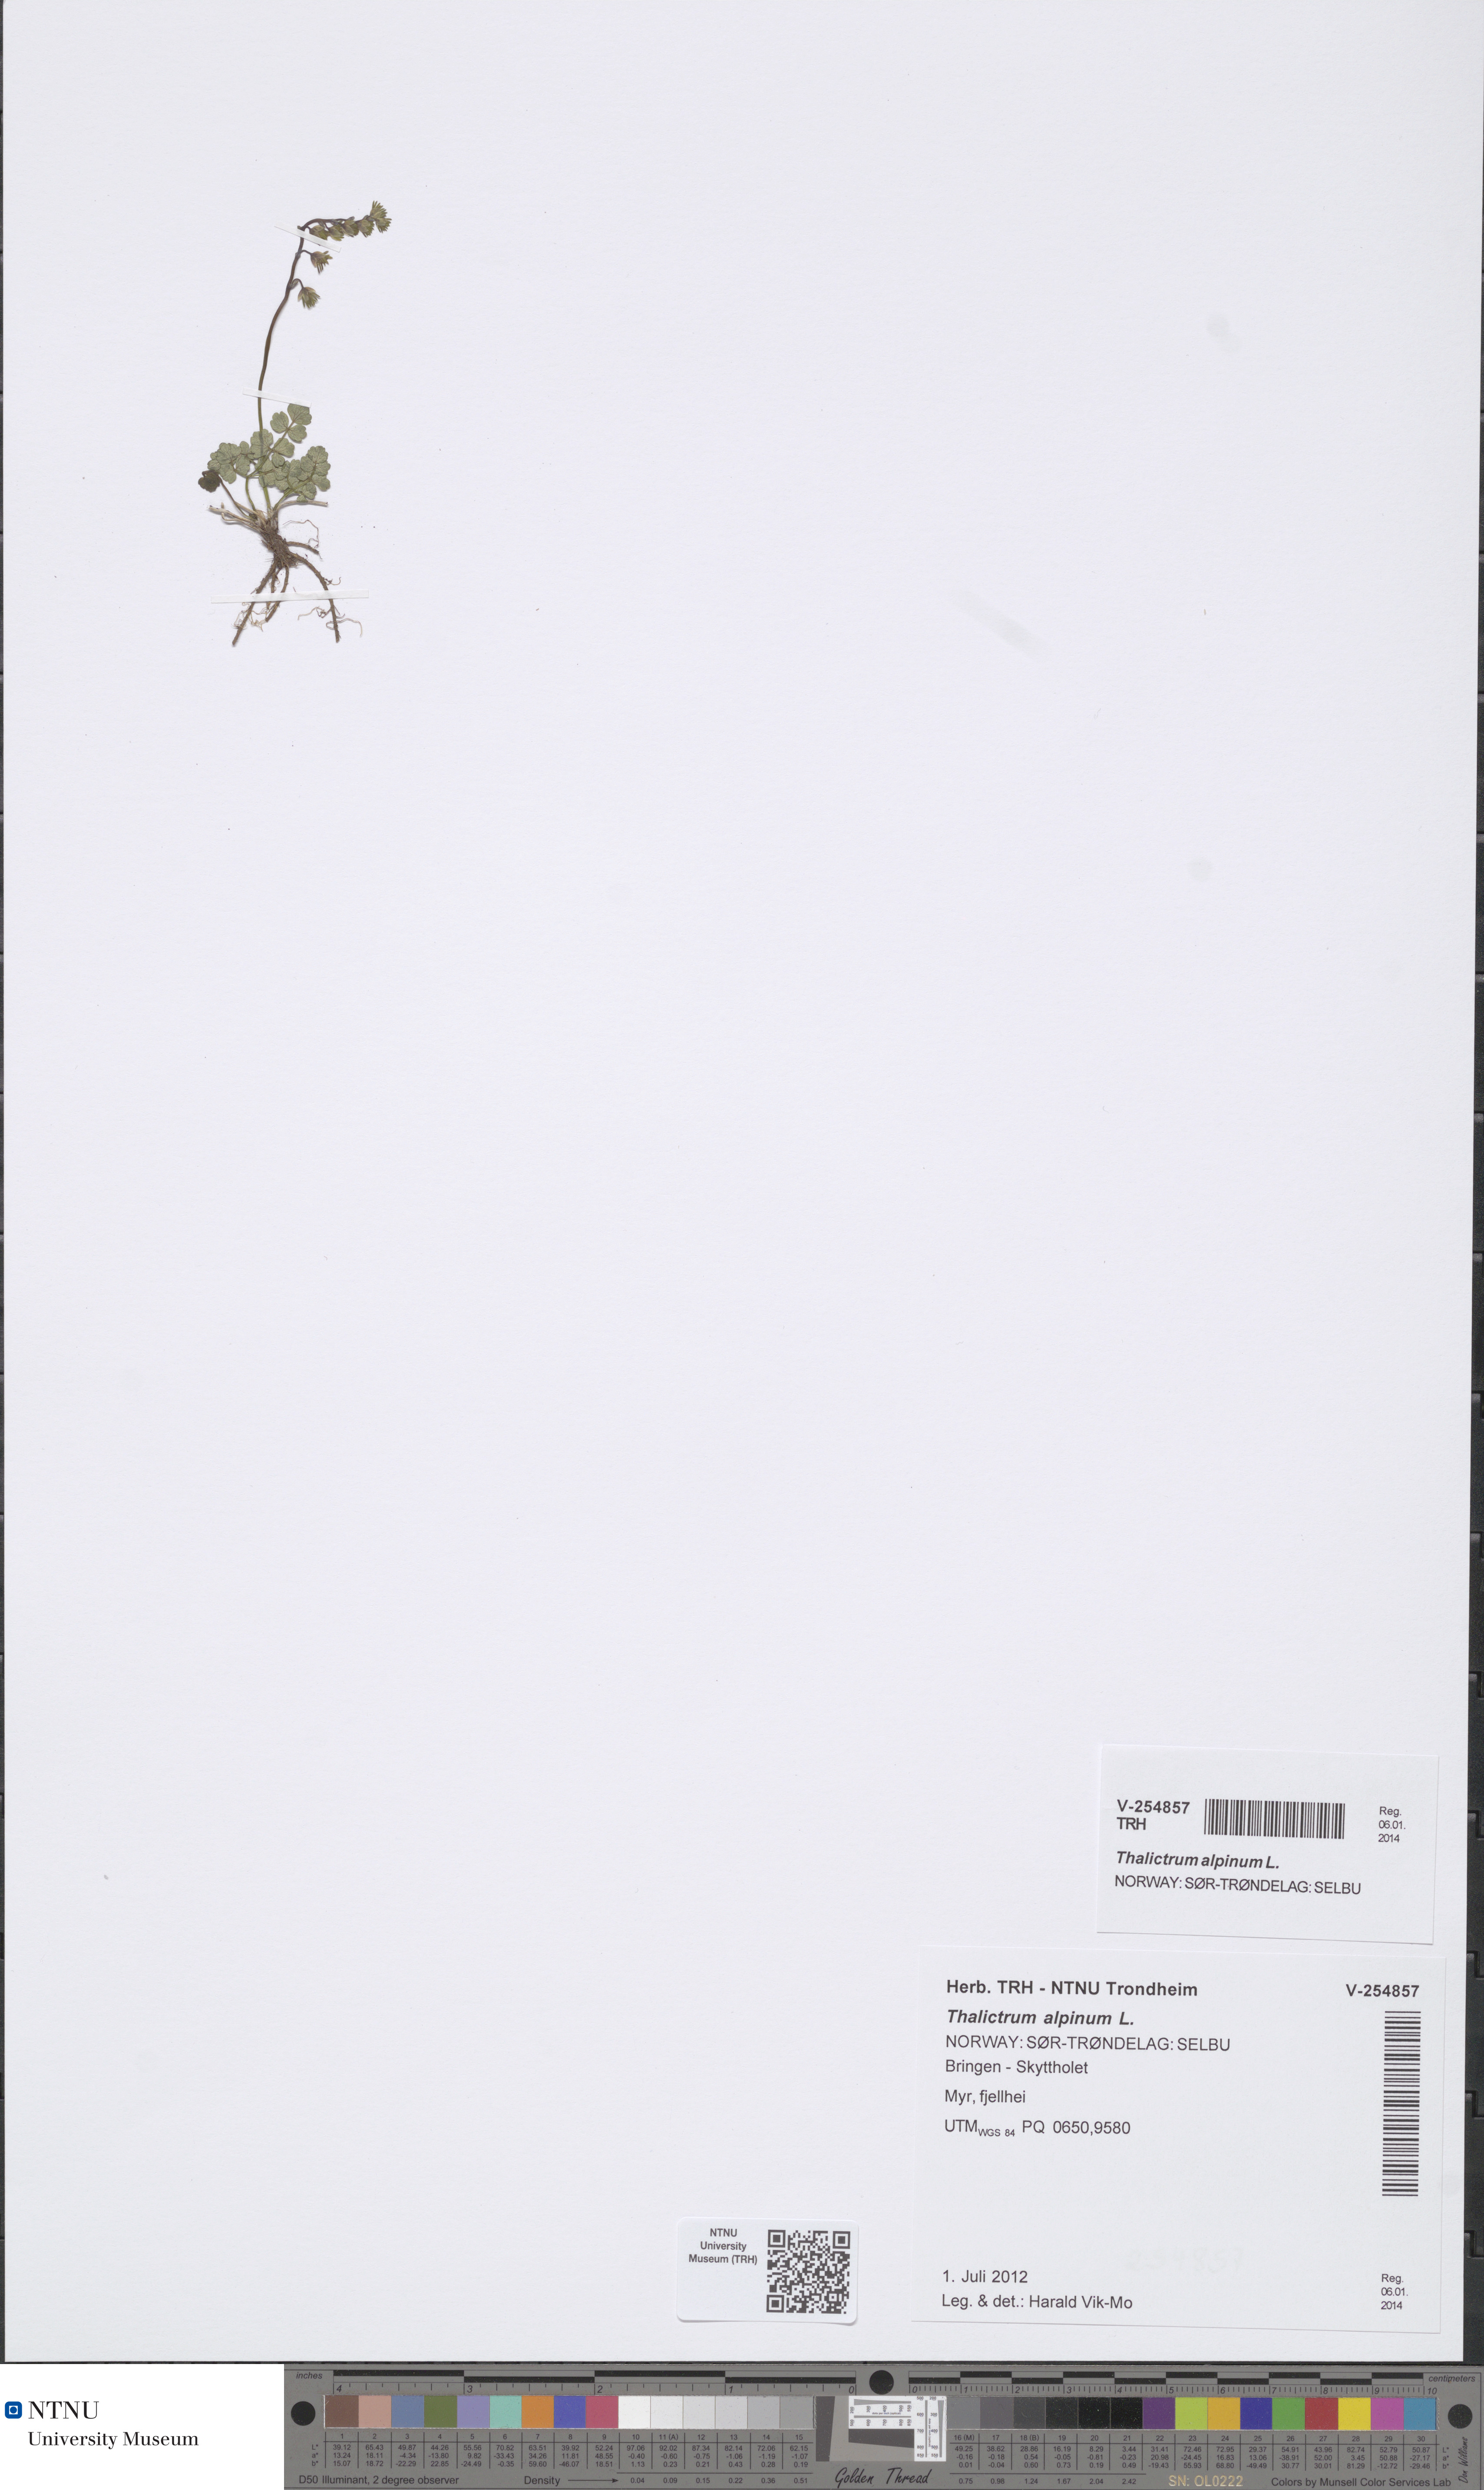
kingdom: Plantae
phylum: Tracheophyta
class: Magnoliopsida
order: Ranunculales
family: Ranunculaceae
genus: Thalictrum
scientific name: Thalictrum alpinum
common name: Alpine meadow-rue
